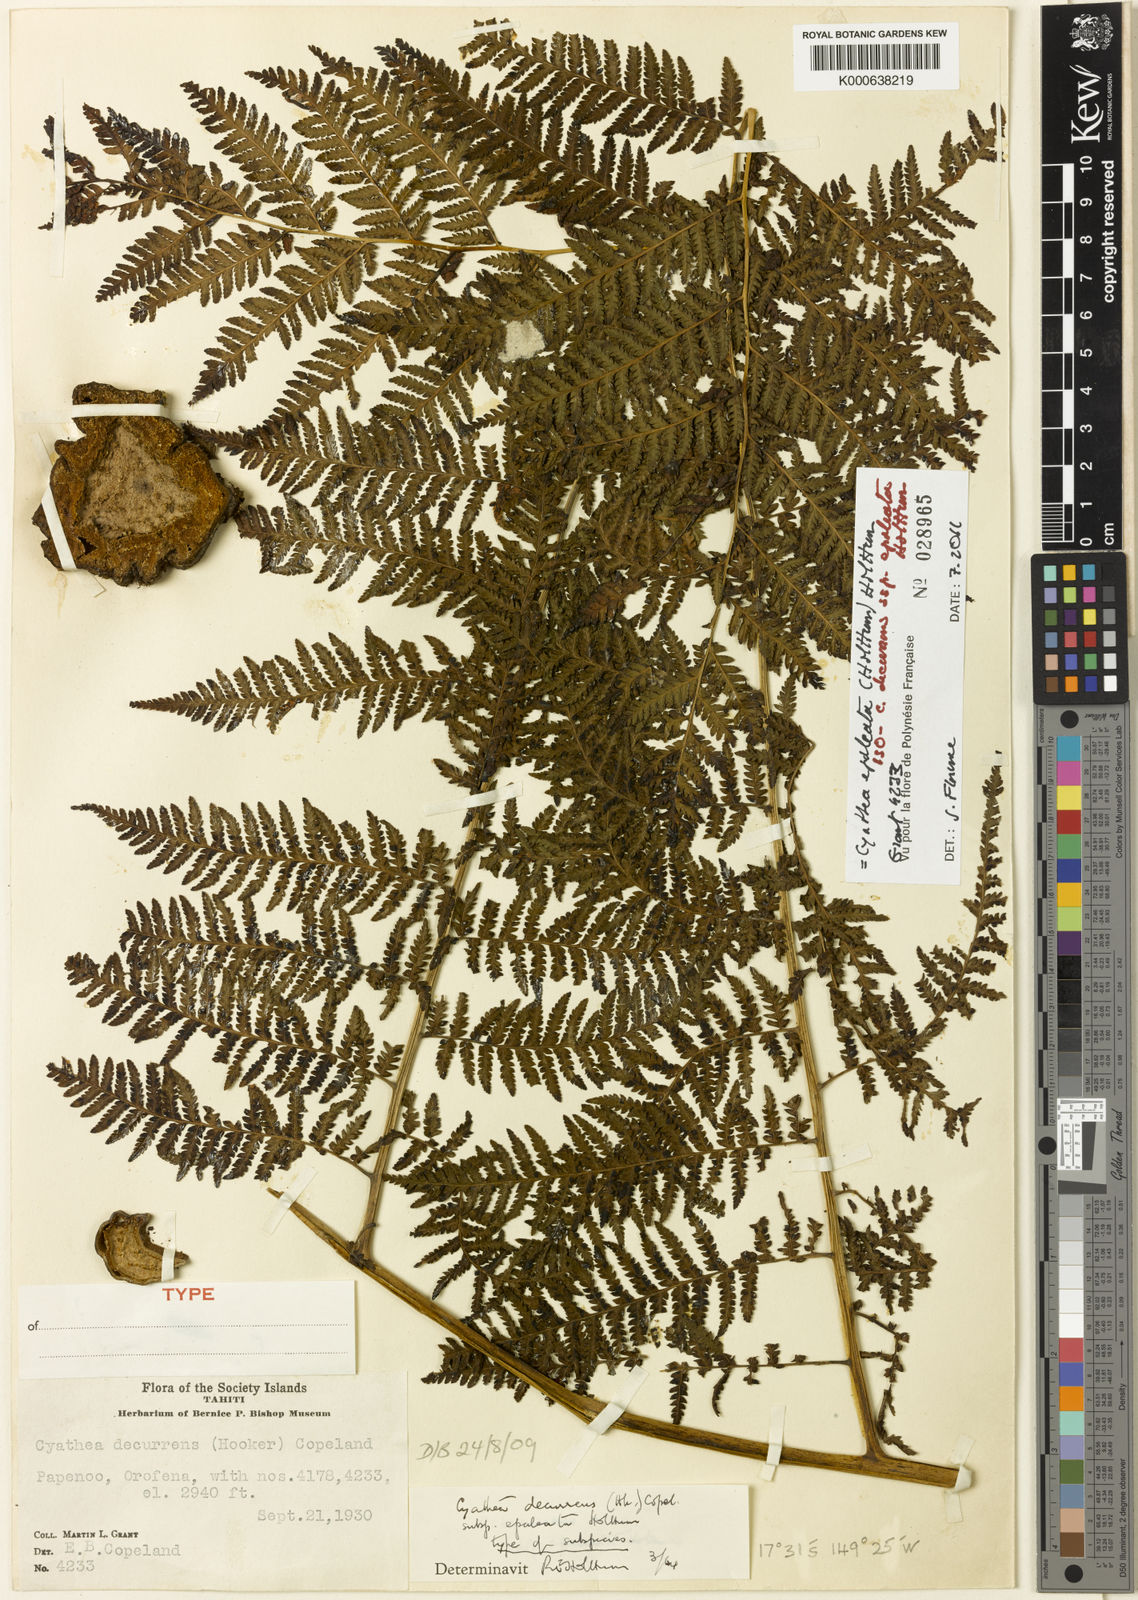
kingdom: Plantae
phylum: Tracheophyta
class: Polypodiopsida
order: Cyatheales
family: Cyatheaceae
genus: Cyathea
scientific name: Cyathea decurrens
